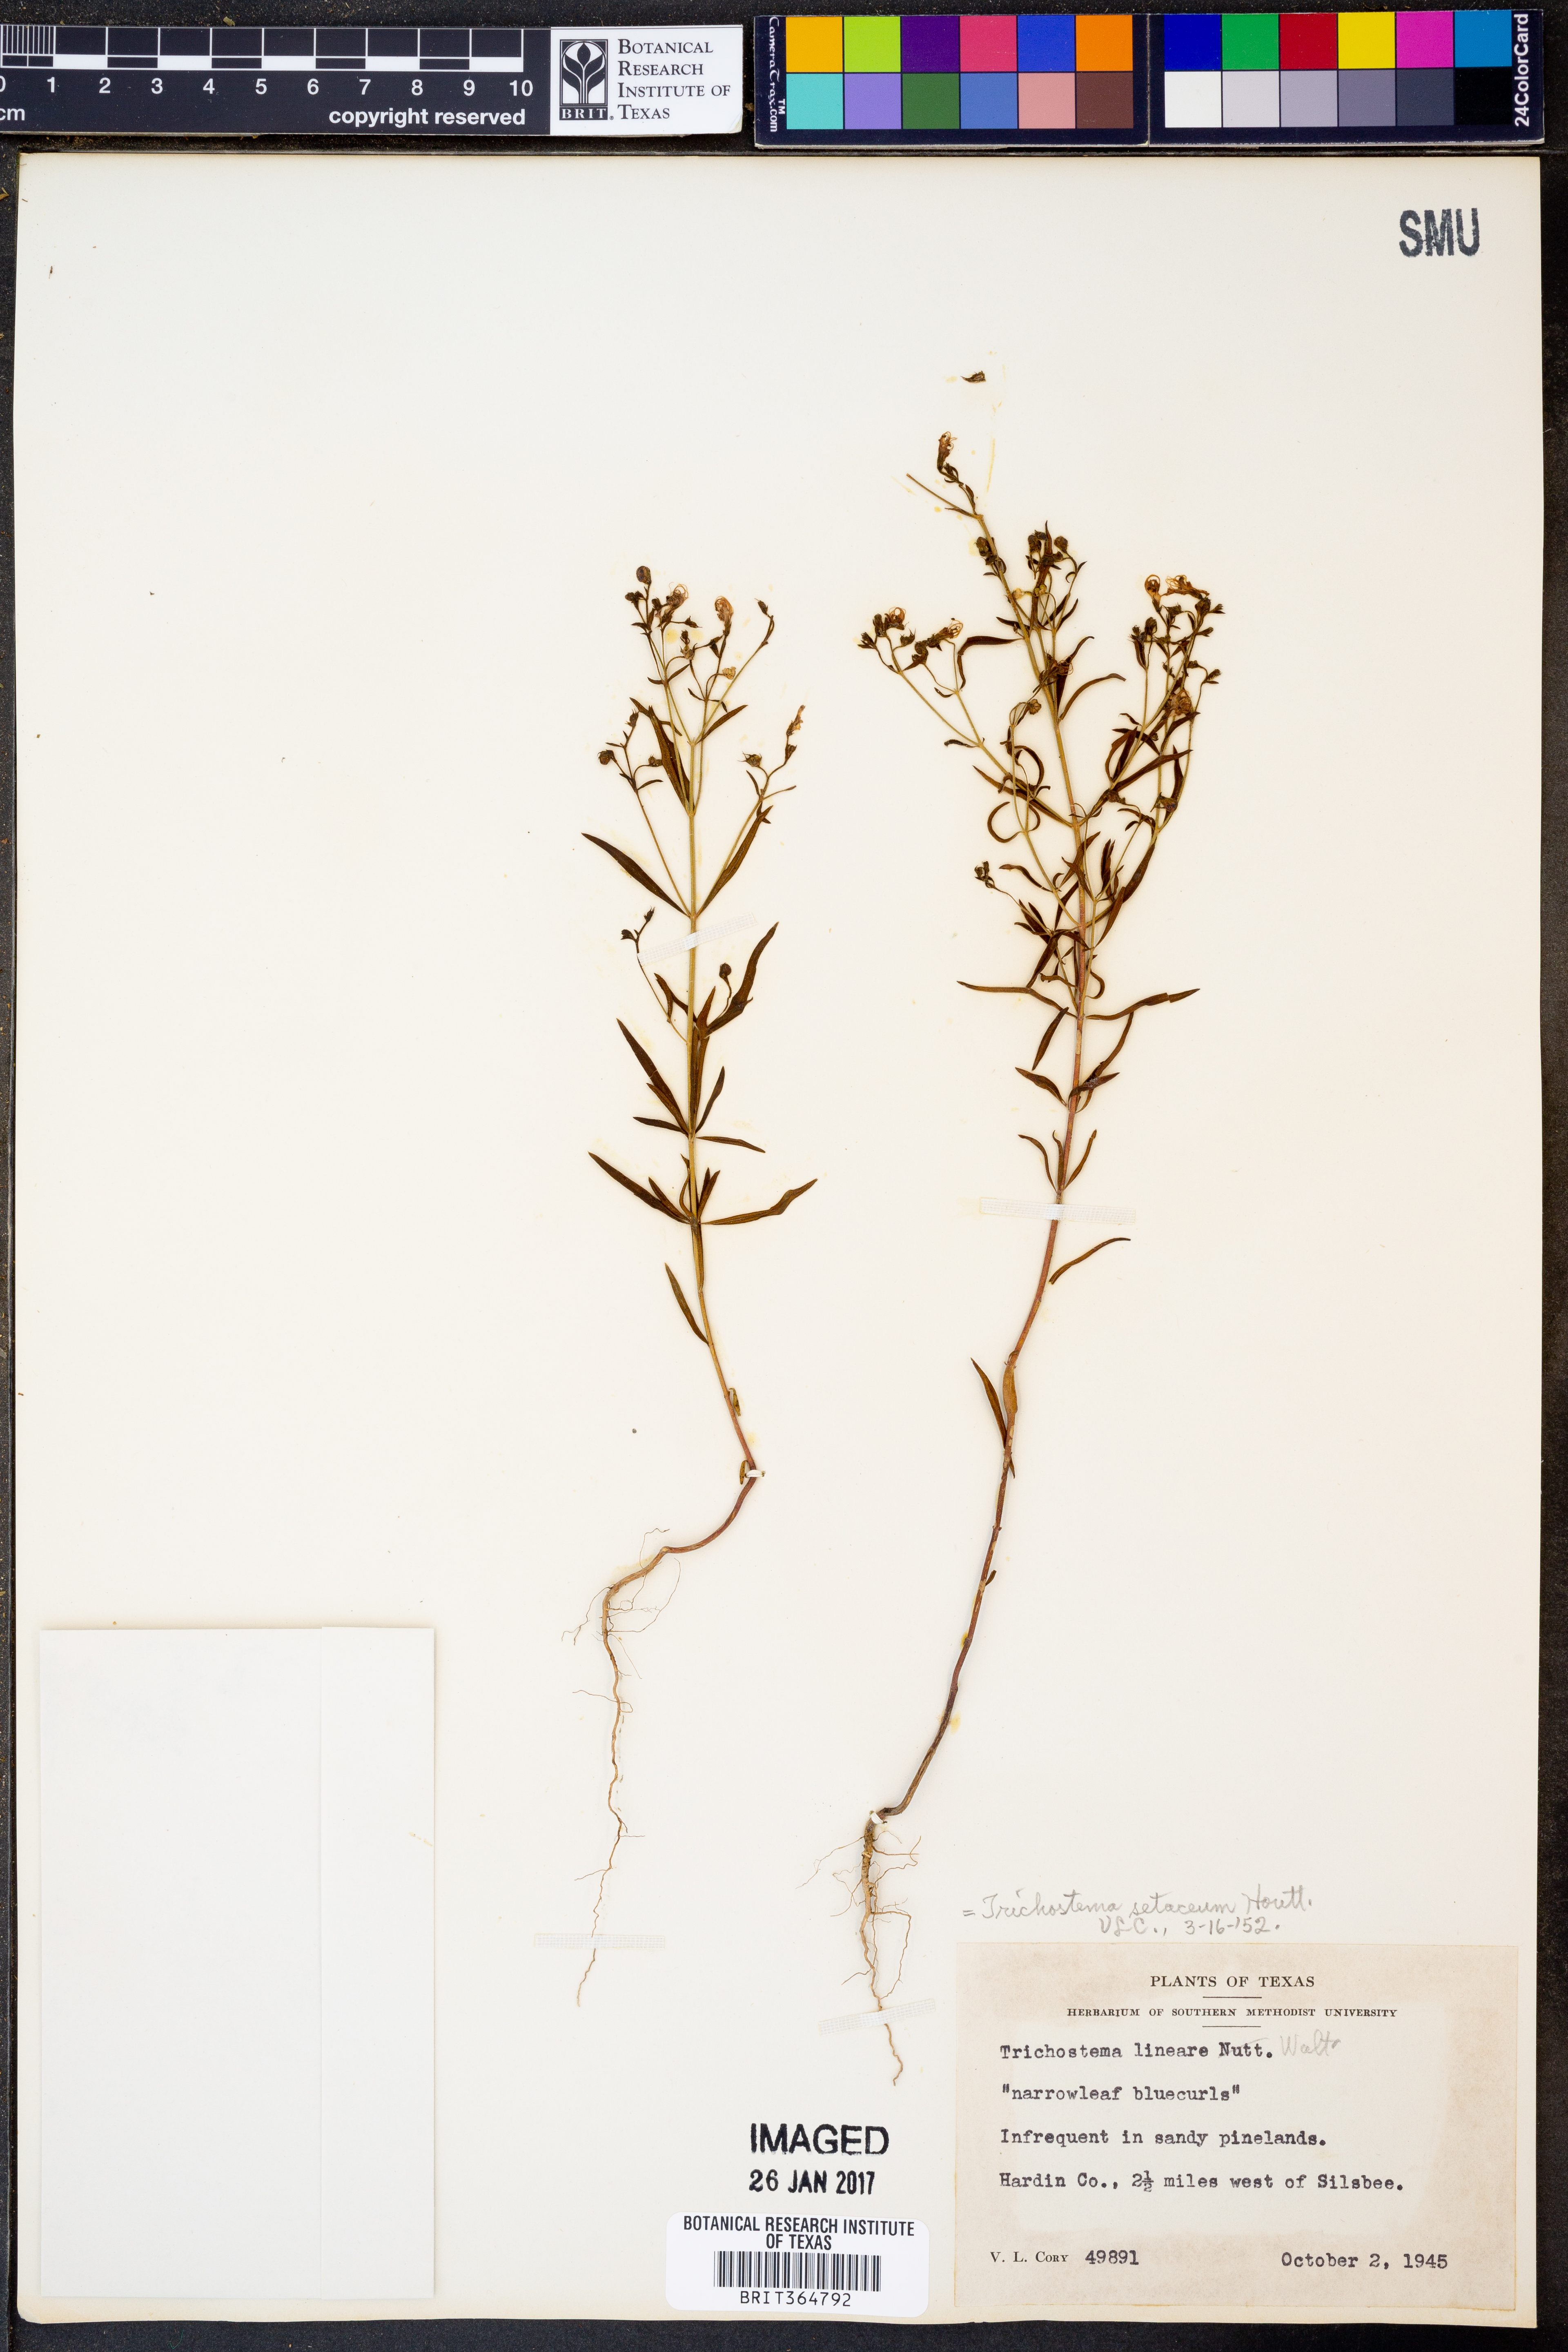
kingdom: Plantae
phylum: Tracheophyta
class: Magnoliopsida
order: Lamiales
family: Lamiaceae
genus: Trichostema
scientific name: Trichostema setaceum
